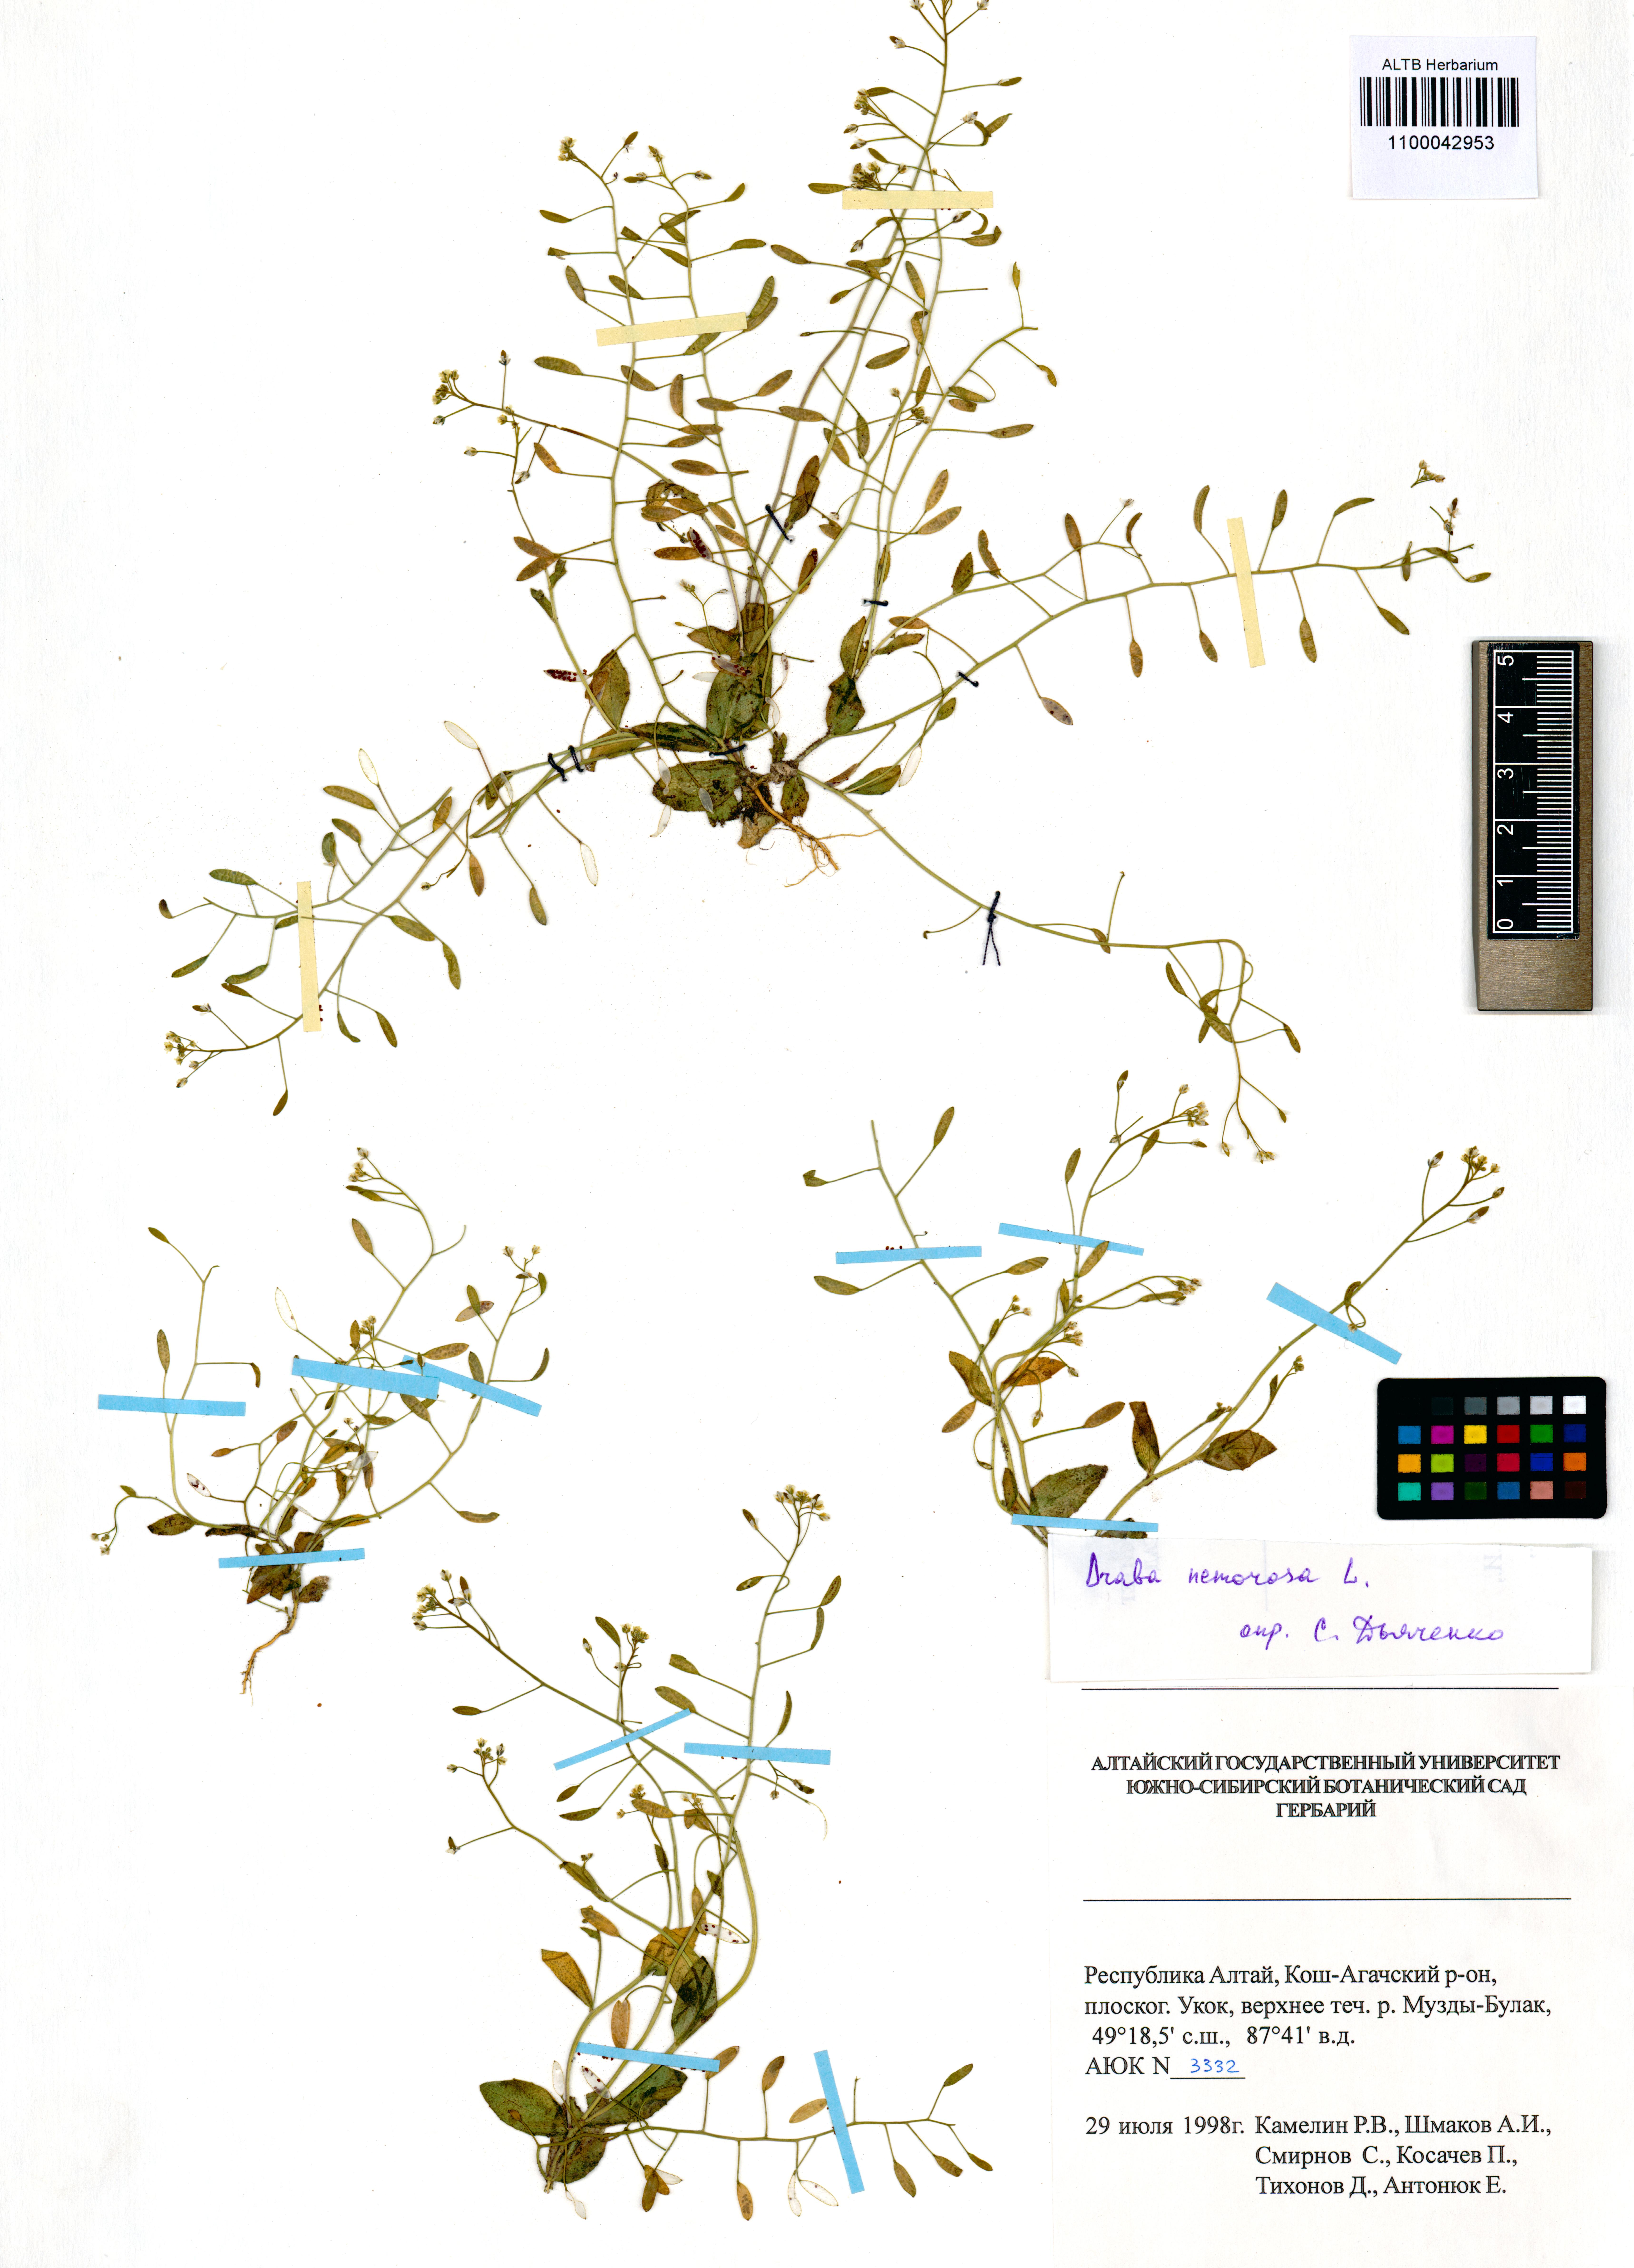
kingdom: Plantae
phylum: Tracheophyta
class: Magnoliopsida
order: Brassicales
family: Brassicaceae
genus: Draba
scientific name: Draba nemorosa
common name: Wood whitlow-grass
